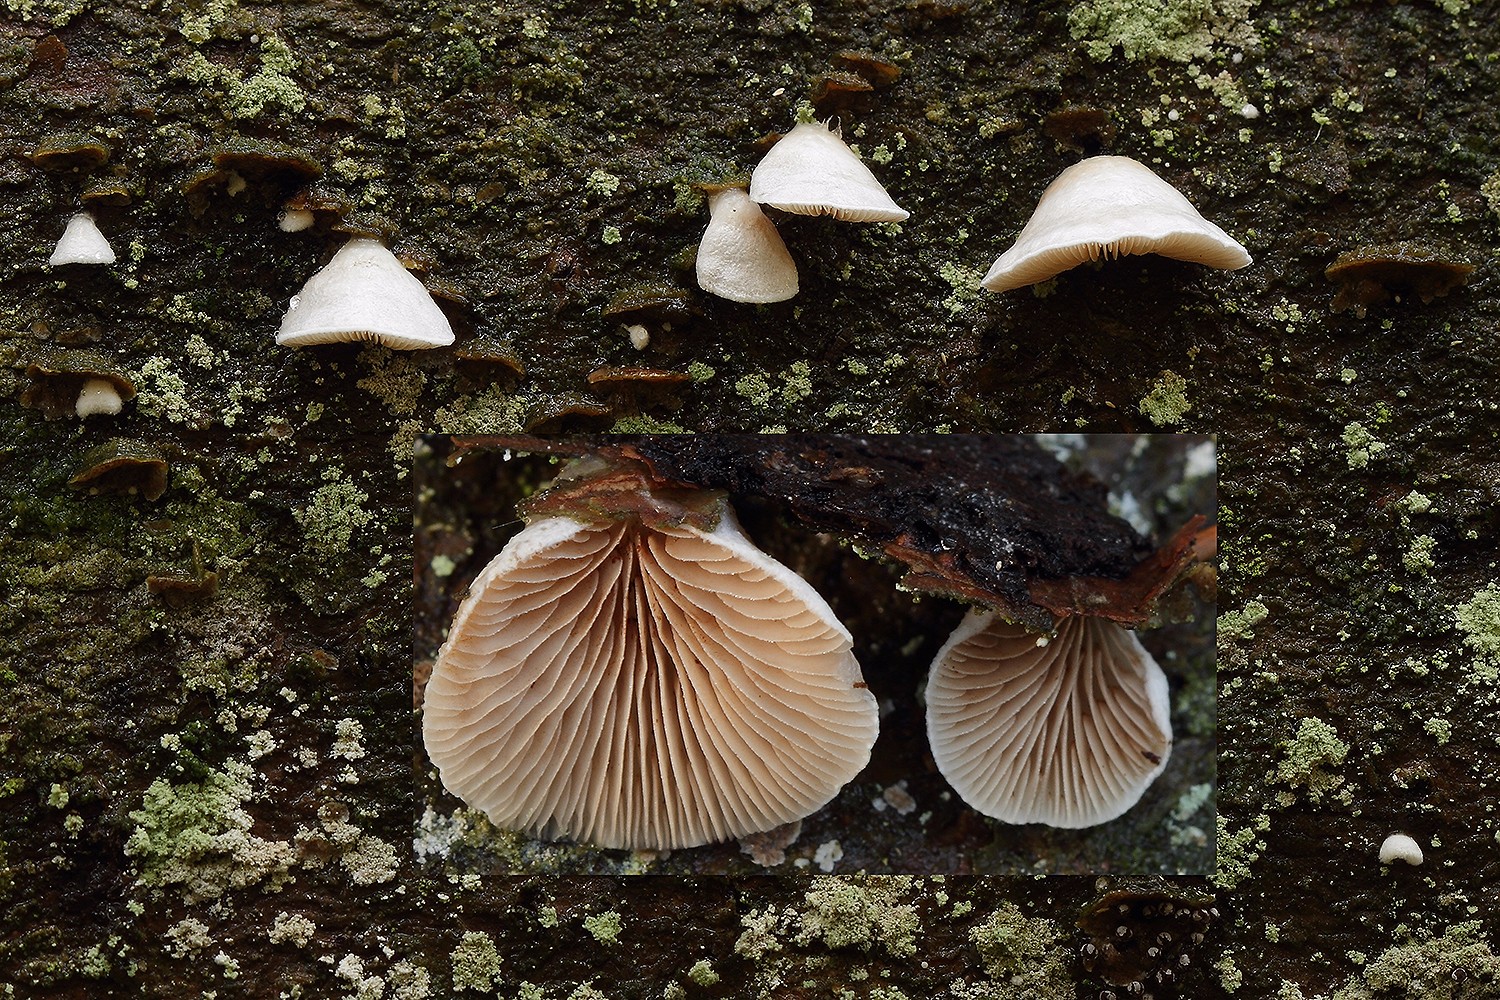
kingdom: Fungi
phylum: Basidiomycota
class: Agaricomycetes
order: Agaricales
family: Crepidotaceae
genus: Crepidotus
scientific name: Crepidotus kubickae
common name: gran-muslingesvamp
